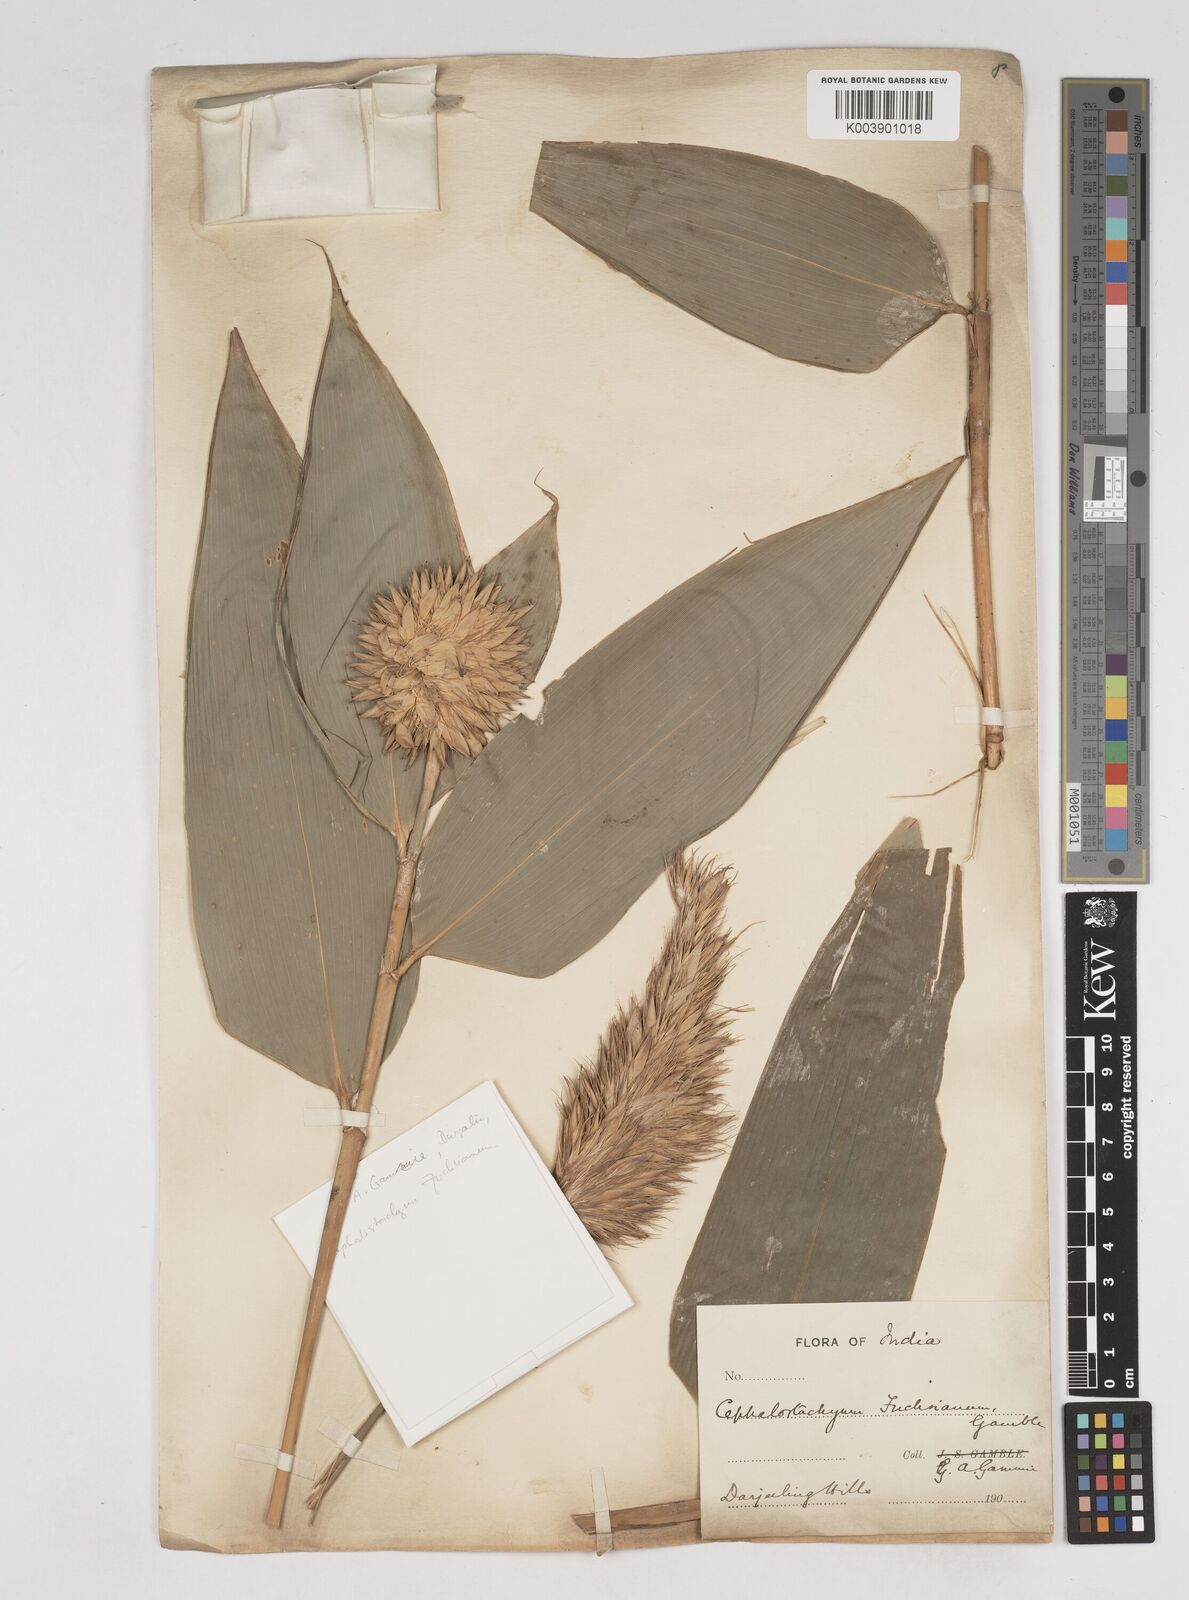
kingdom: Plantae
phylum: Tracheophyta
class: Liliopsida
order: Poales
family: Poaceae
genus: Cephalostachyum
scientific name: Cephalostachyum latifolium
